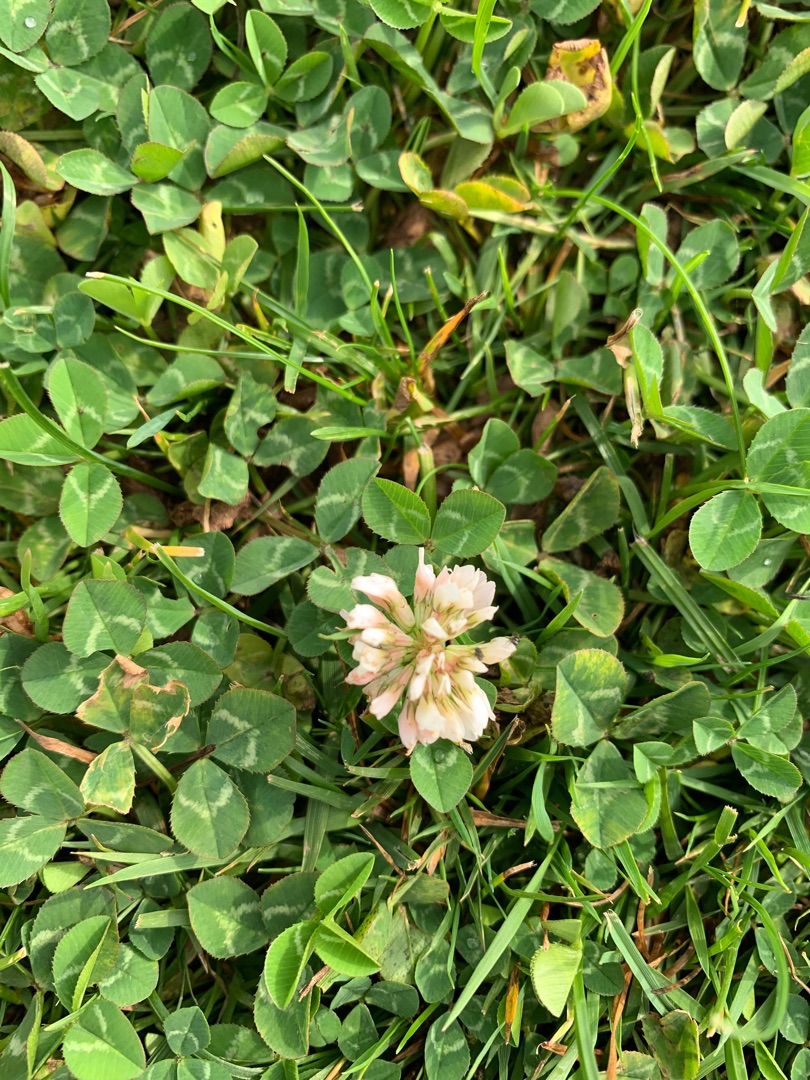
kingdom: Plantae
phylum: Tracheophyta
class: Magnoliopsida
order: Fabales
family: Fabaceae
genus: Trifolium
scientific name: Trifolium repens
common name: Hvid-kløver
